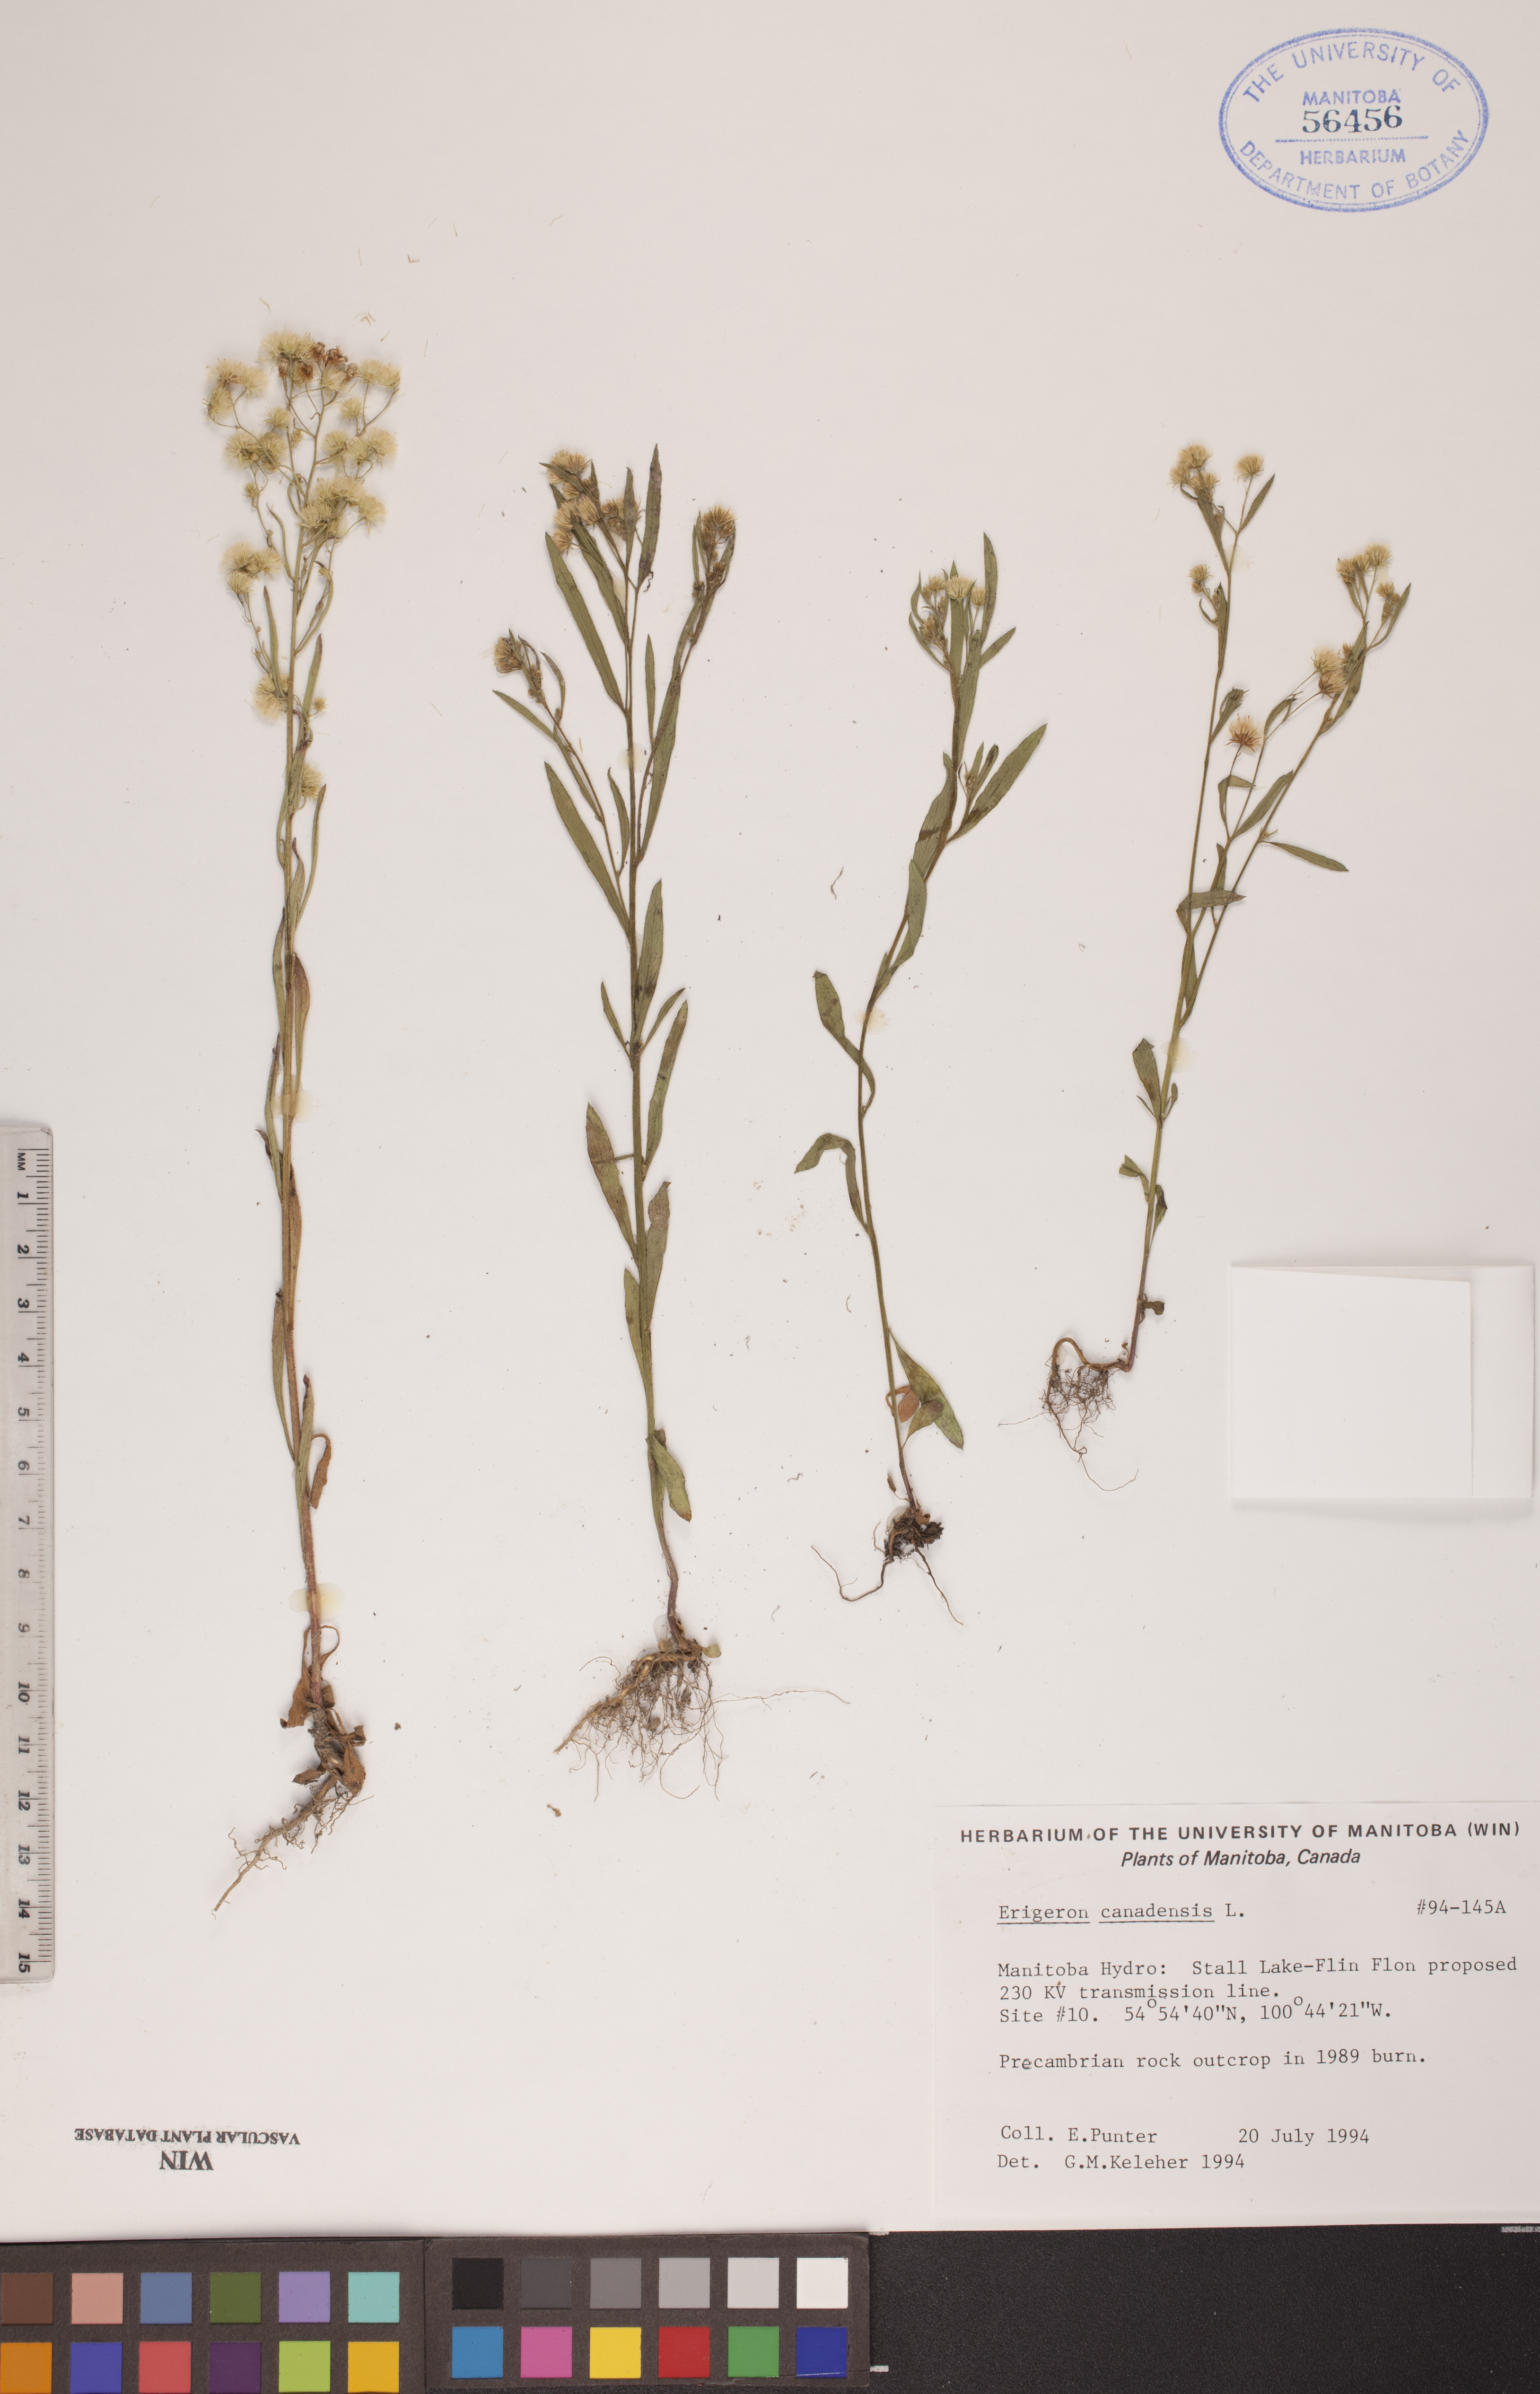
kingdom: Plantae
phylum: Tracheophyta
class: Magnoliopsida
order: Asterales
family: Asteraceae
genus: Erigeron
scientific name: Erigeron canadensis
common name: Canadian fleabane
